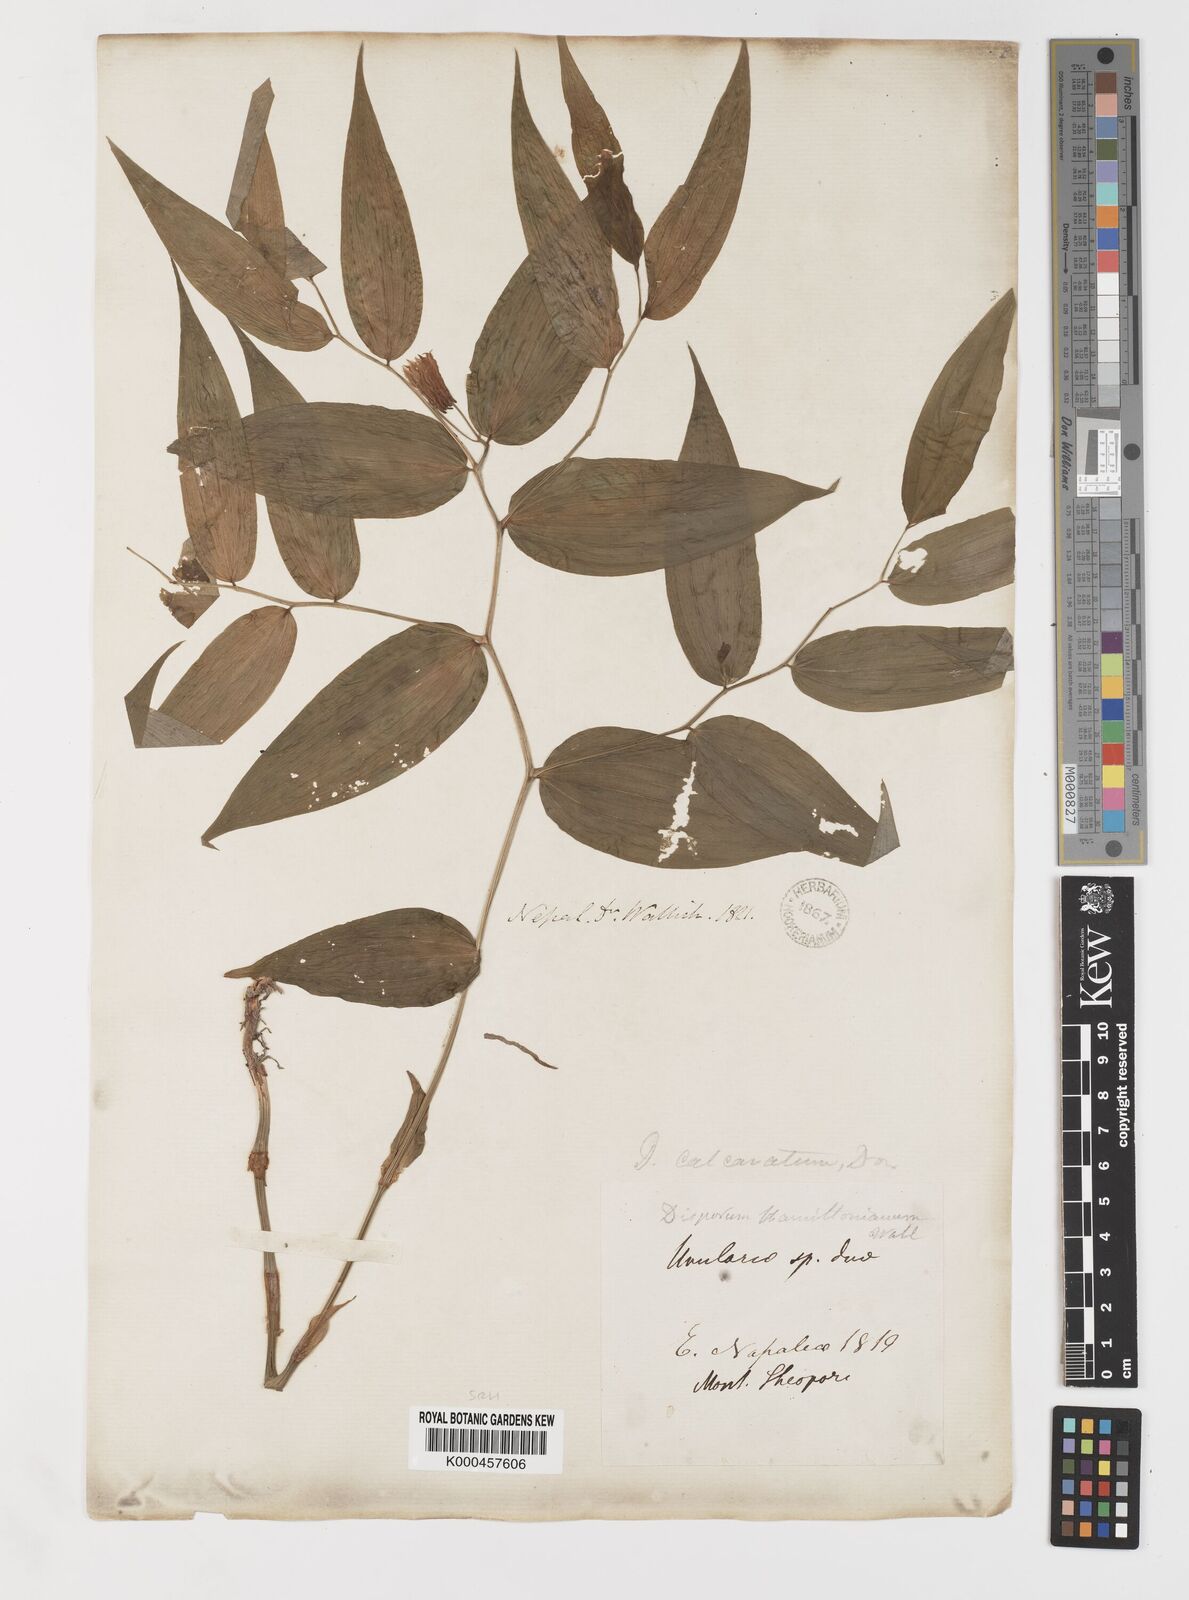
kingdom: Plantae
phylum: Tracheophyta
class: Liliopsida
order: Liliales
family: Colchicaceae
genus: Disporum
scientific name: Disporum calcaratum
